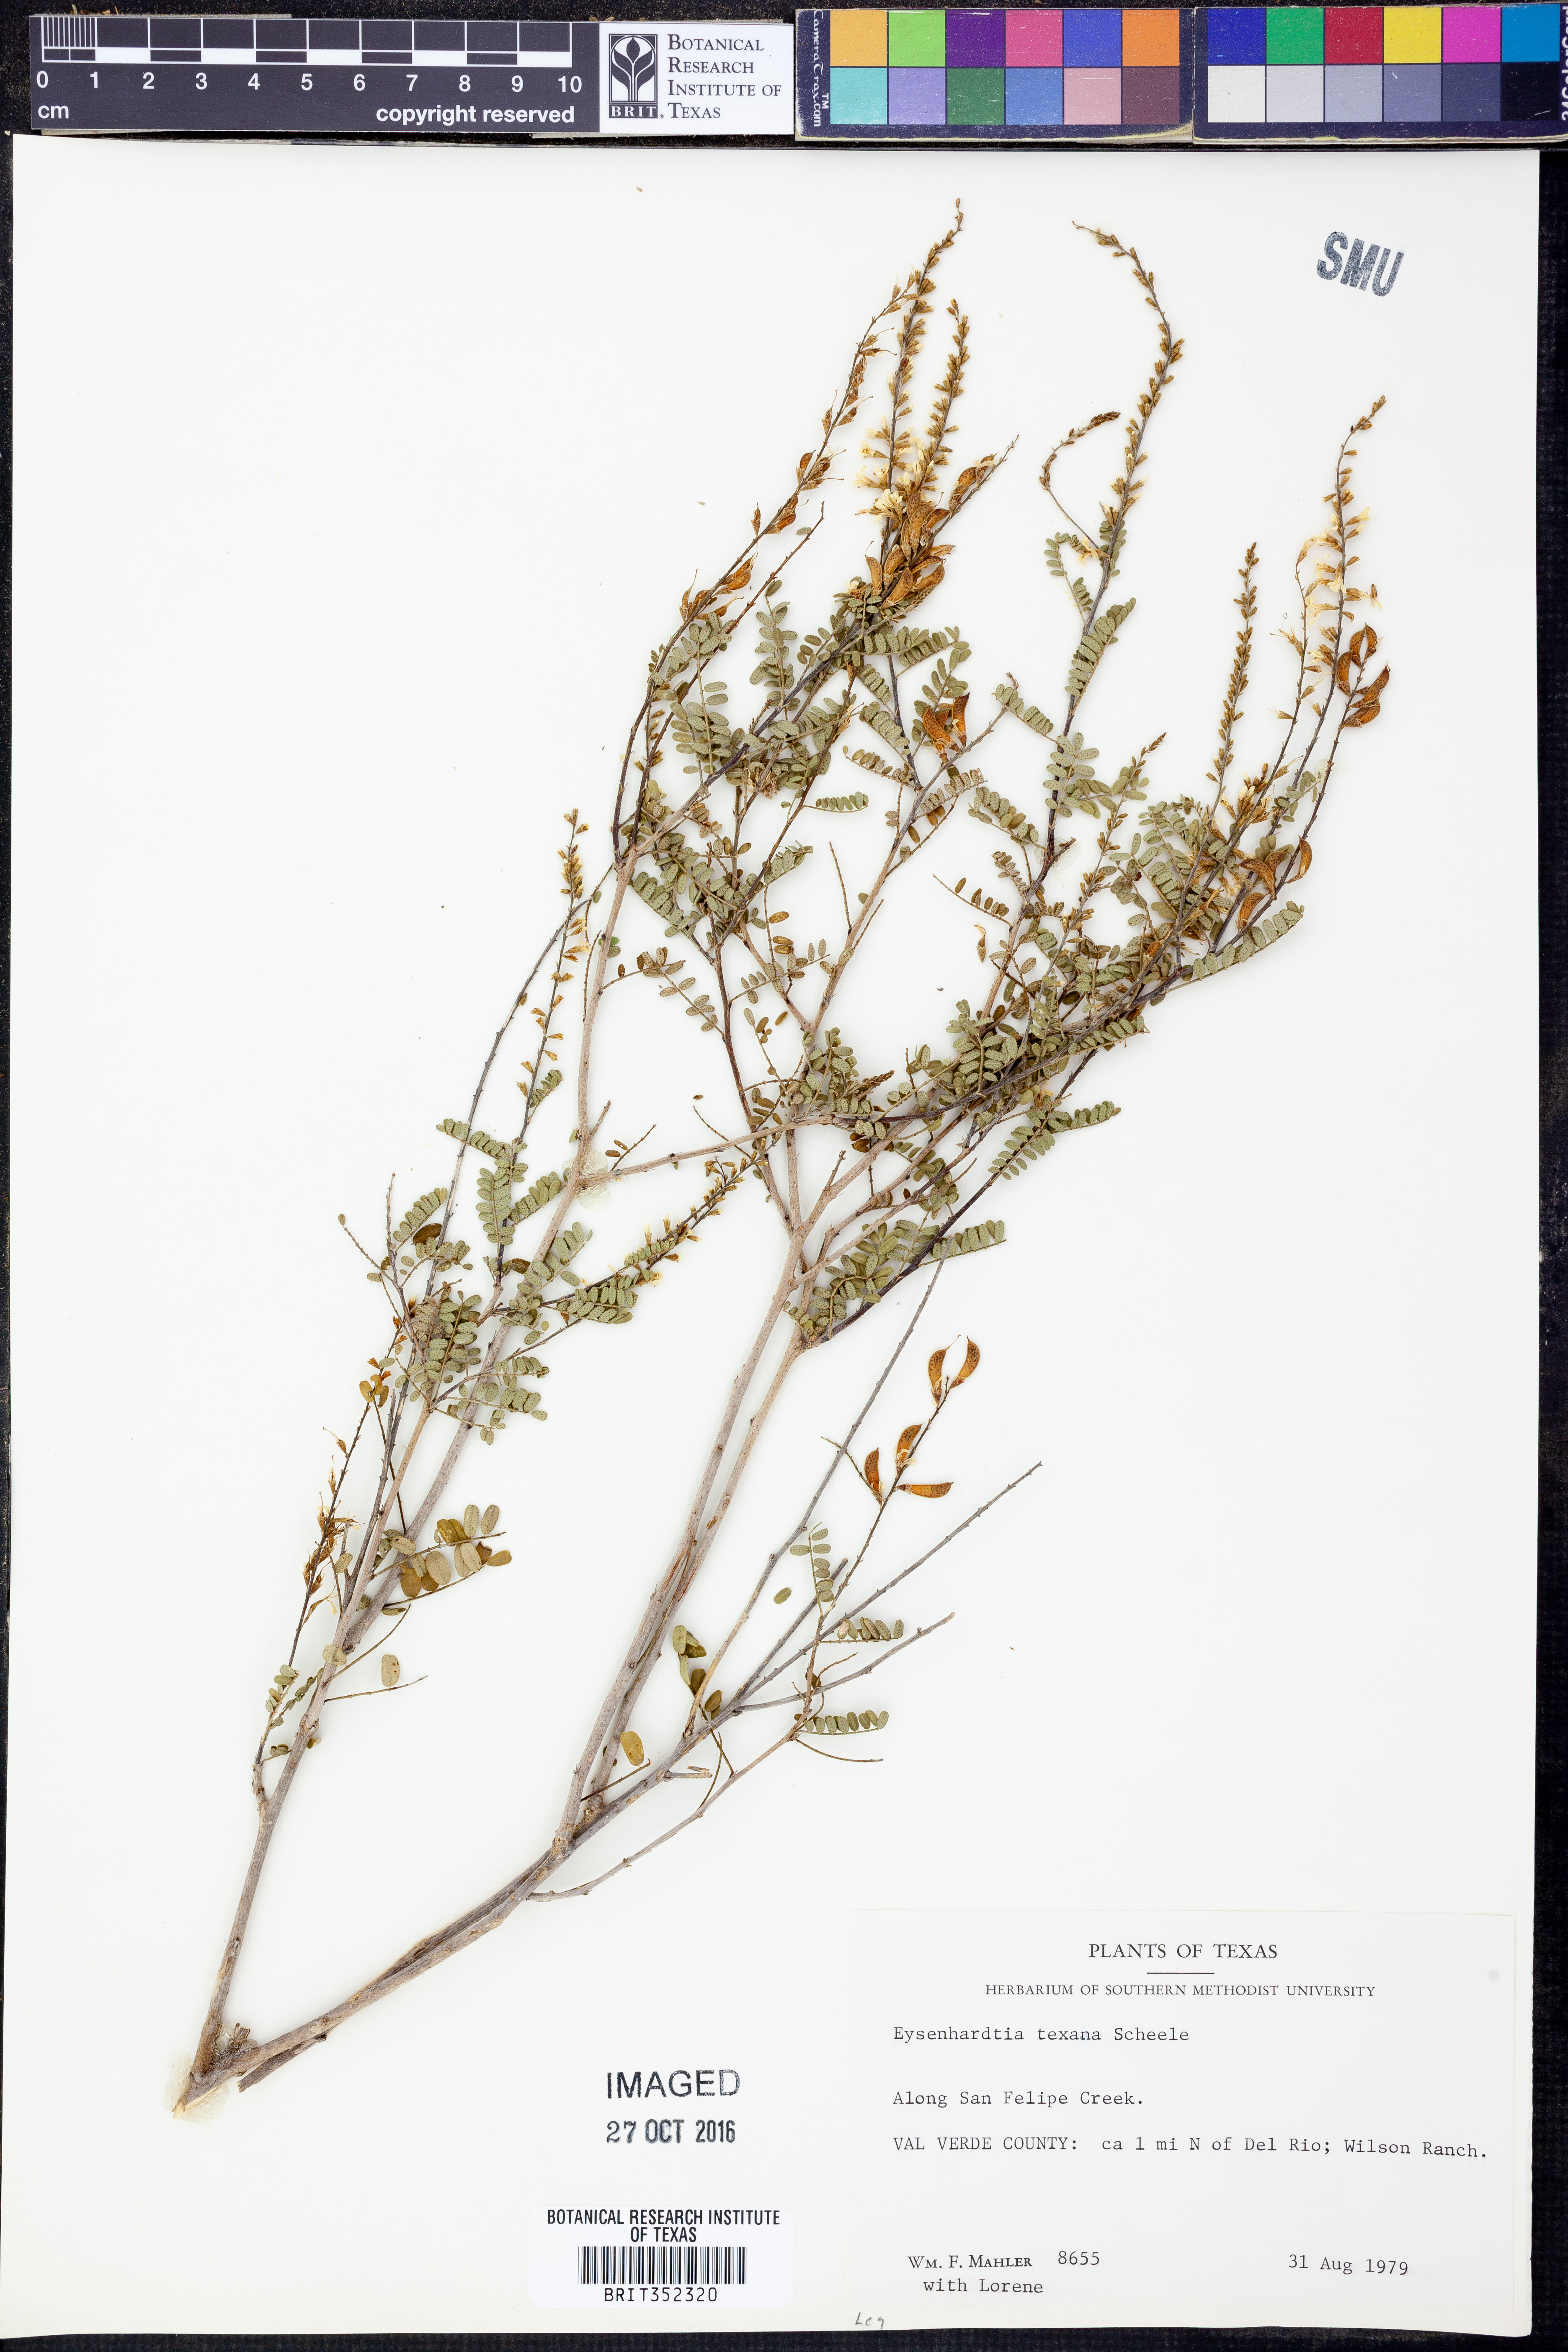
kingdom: Plantae
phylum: Tracheophyta
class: Magnoliopsida
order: Fabales
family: Fabaceae
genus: Eysenhardtia
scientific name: Eysenhardtia texana
